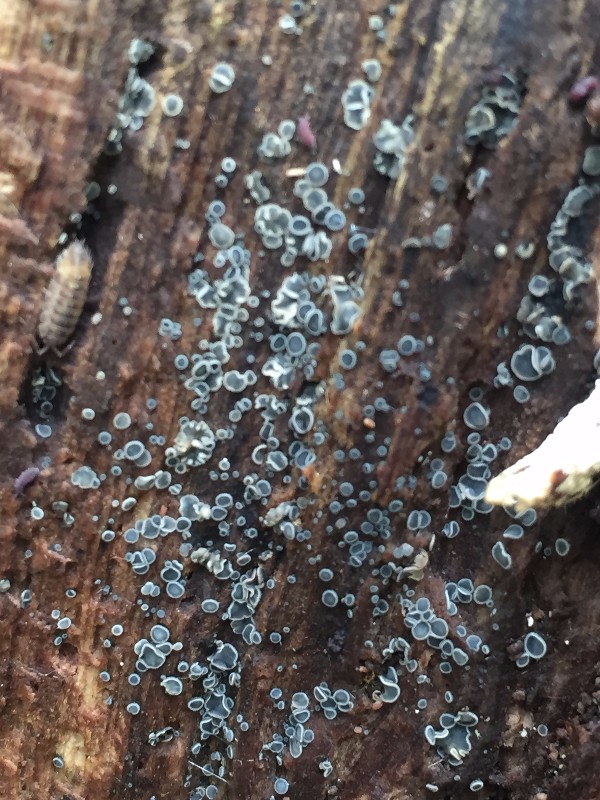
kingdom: Fungi
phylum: Ascomycota
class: Leotiomycetes
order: Helotiales
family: Mollisiaceae
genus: Mollisia
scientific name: Mollisia cinerea
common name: almindelig gråskive
